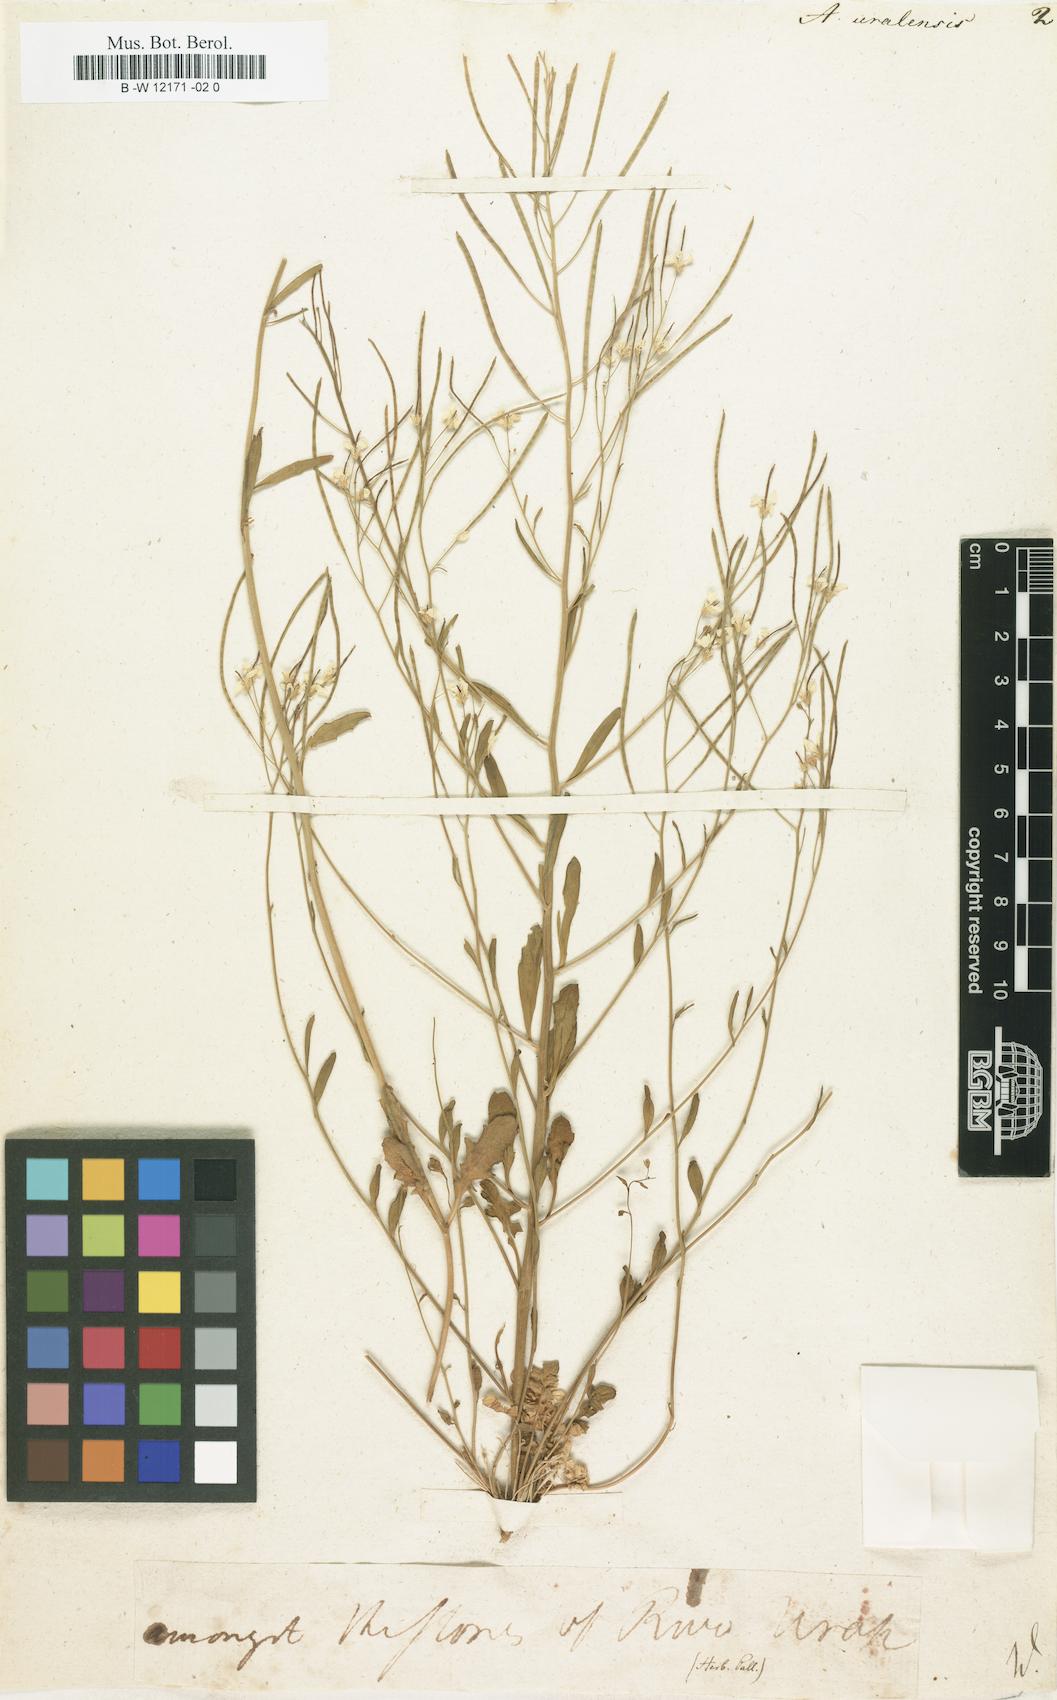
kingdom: Plantae
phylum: Tracheophyta
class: Magnoliopsida
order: Brassicales
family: Brassicaceae
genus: Arabidopsis
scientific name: Arabidopsis lyrata
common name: Lyrate rockcress
